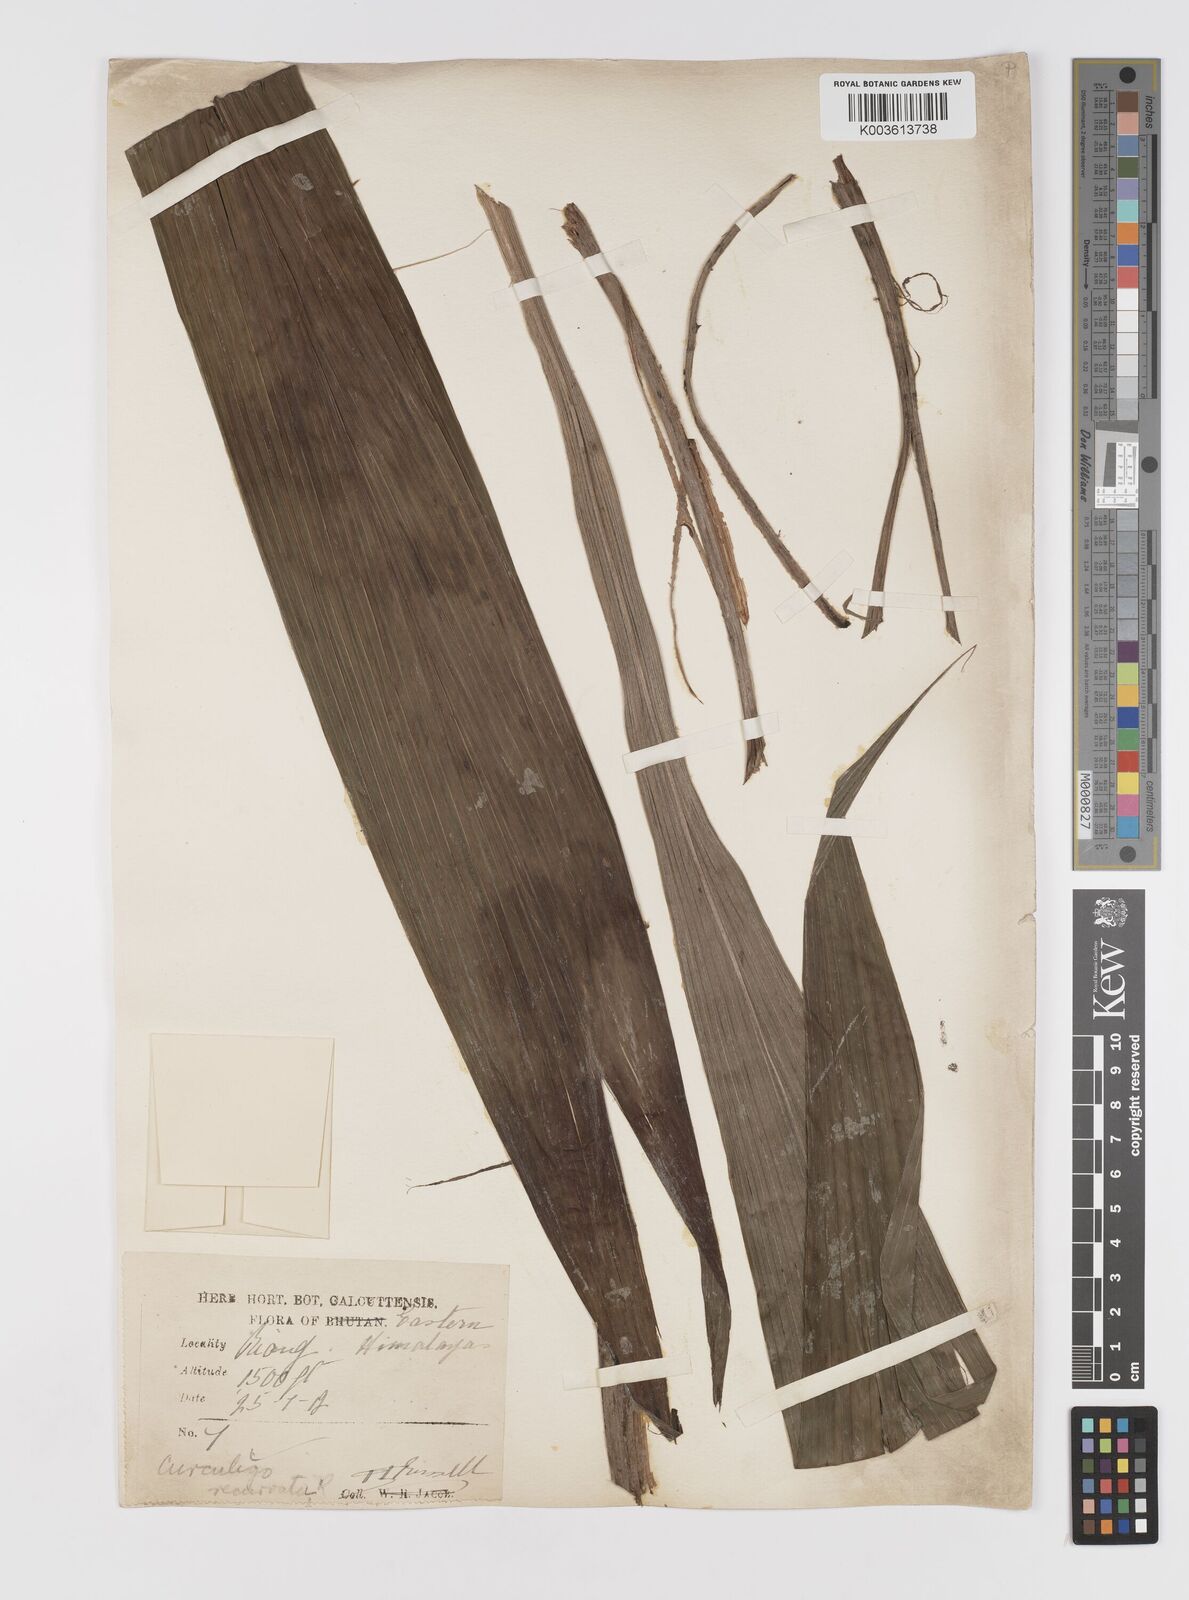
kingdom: Plantae
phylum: Tracheophyta
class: Liliopsida
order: Asparagales
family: Hypoxidaceae
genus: Curculigo
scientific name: Curculigo capitulata
